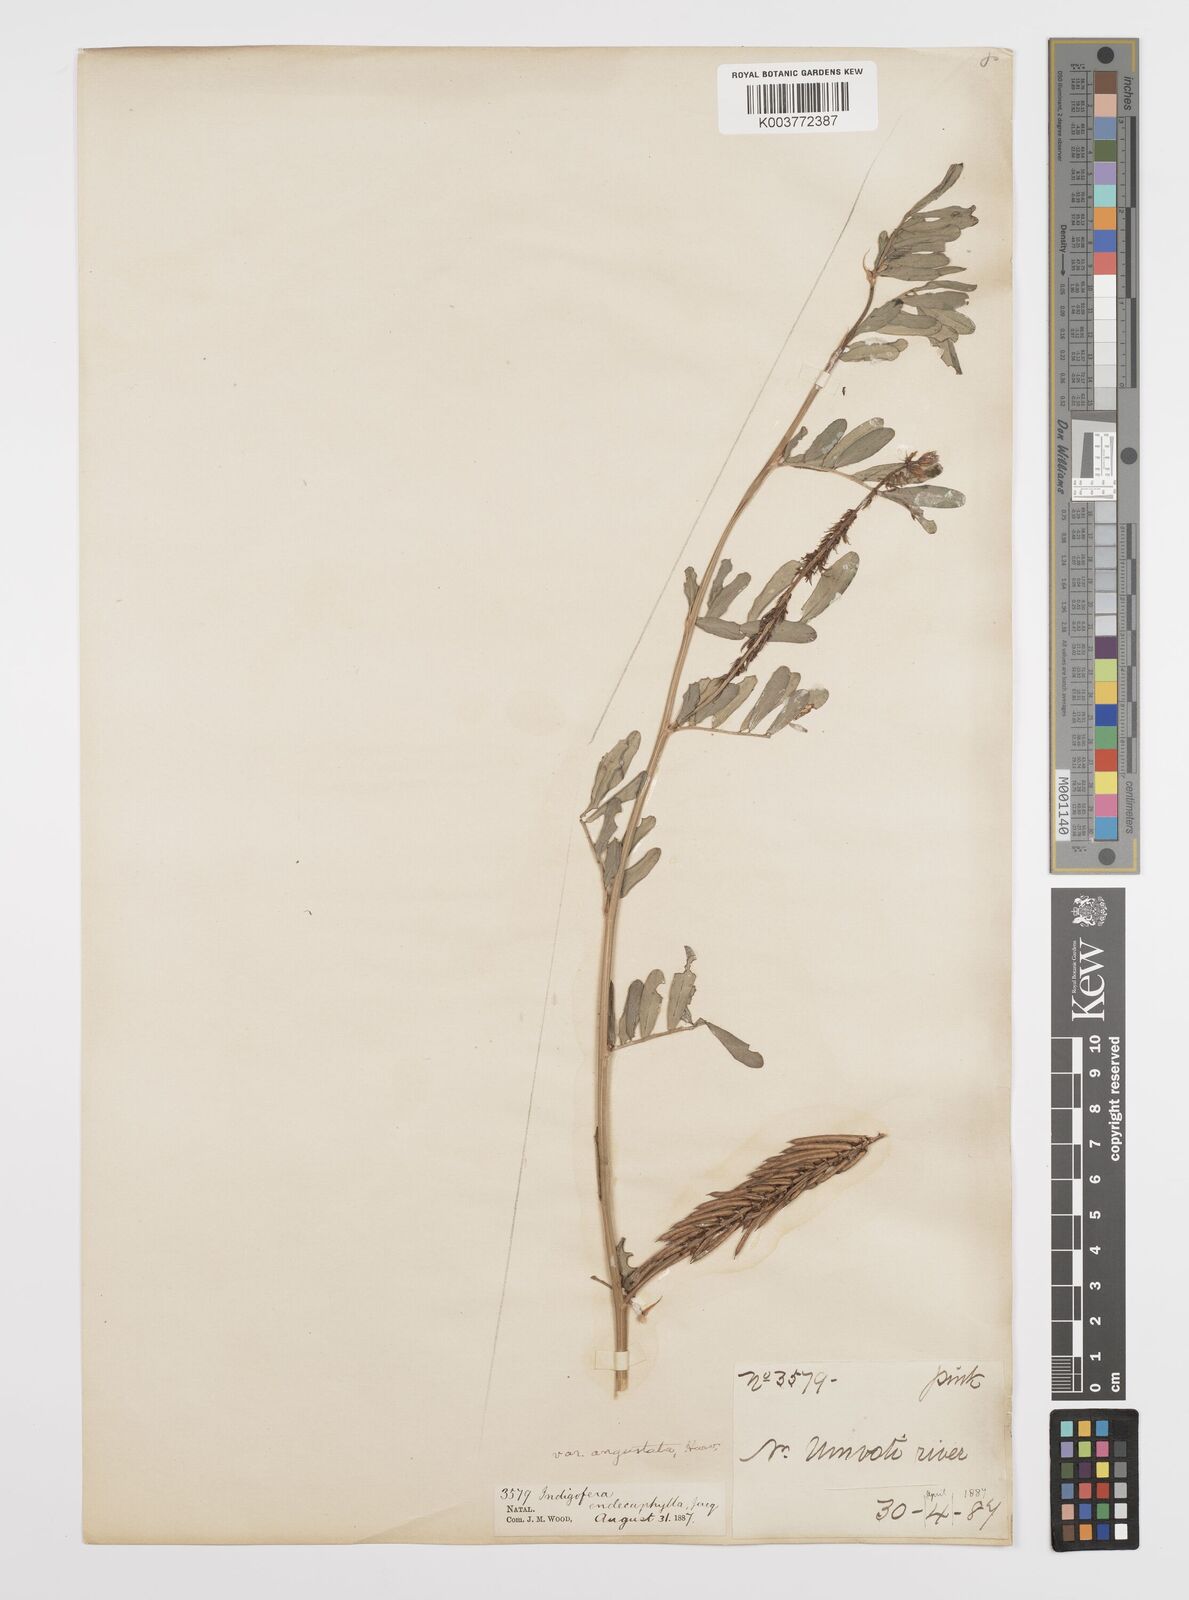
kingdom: Plantae
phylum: Tracheophyta
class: Magnoliopsida
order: Fabales
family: Fabaceae
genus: Indigofera
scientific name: Indigofera hendecaphylla
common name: Trailing indigo
